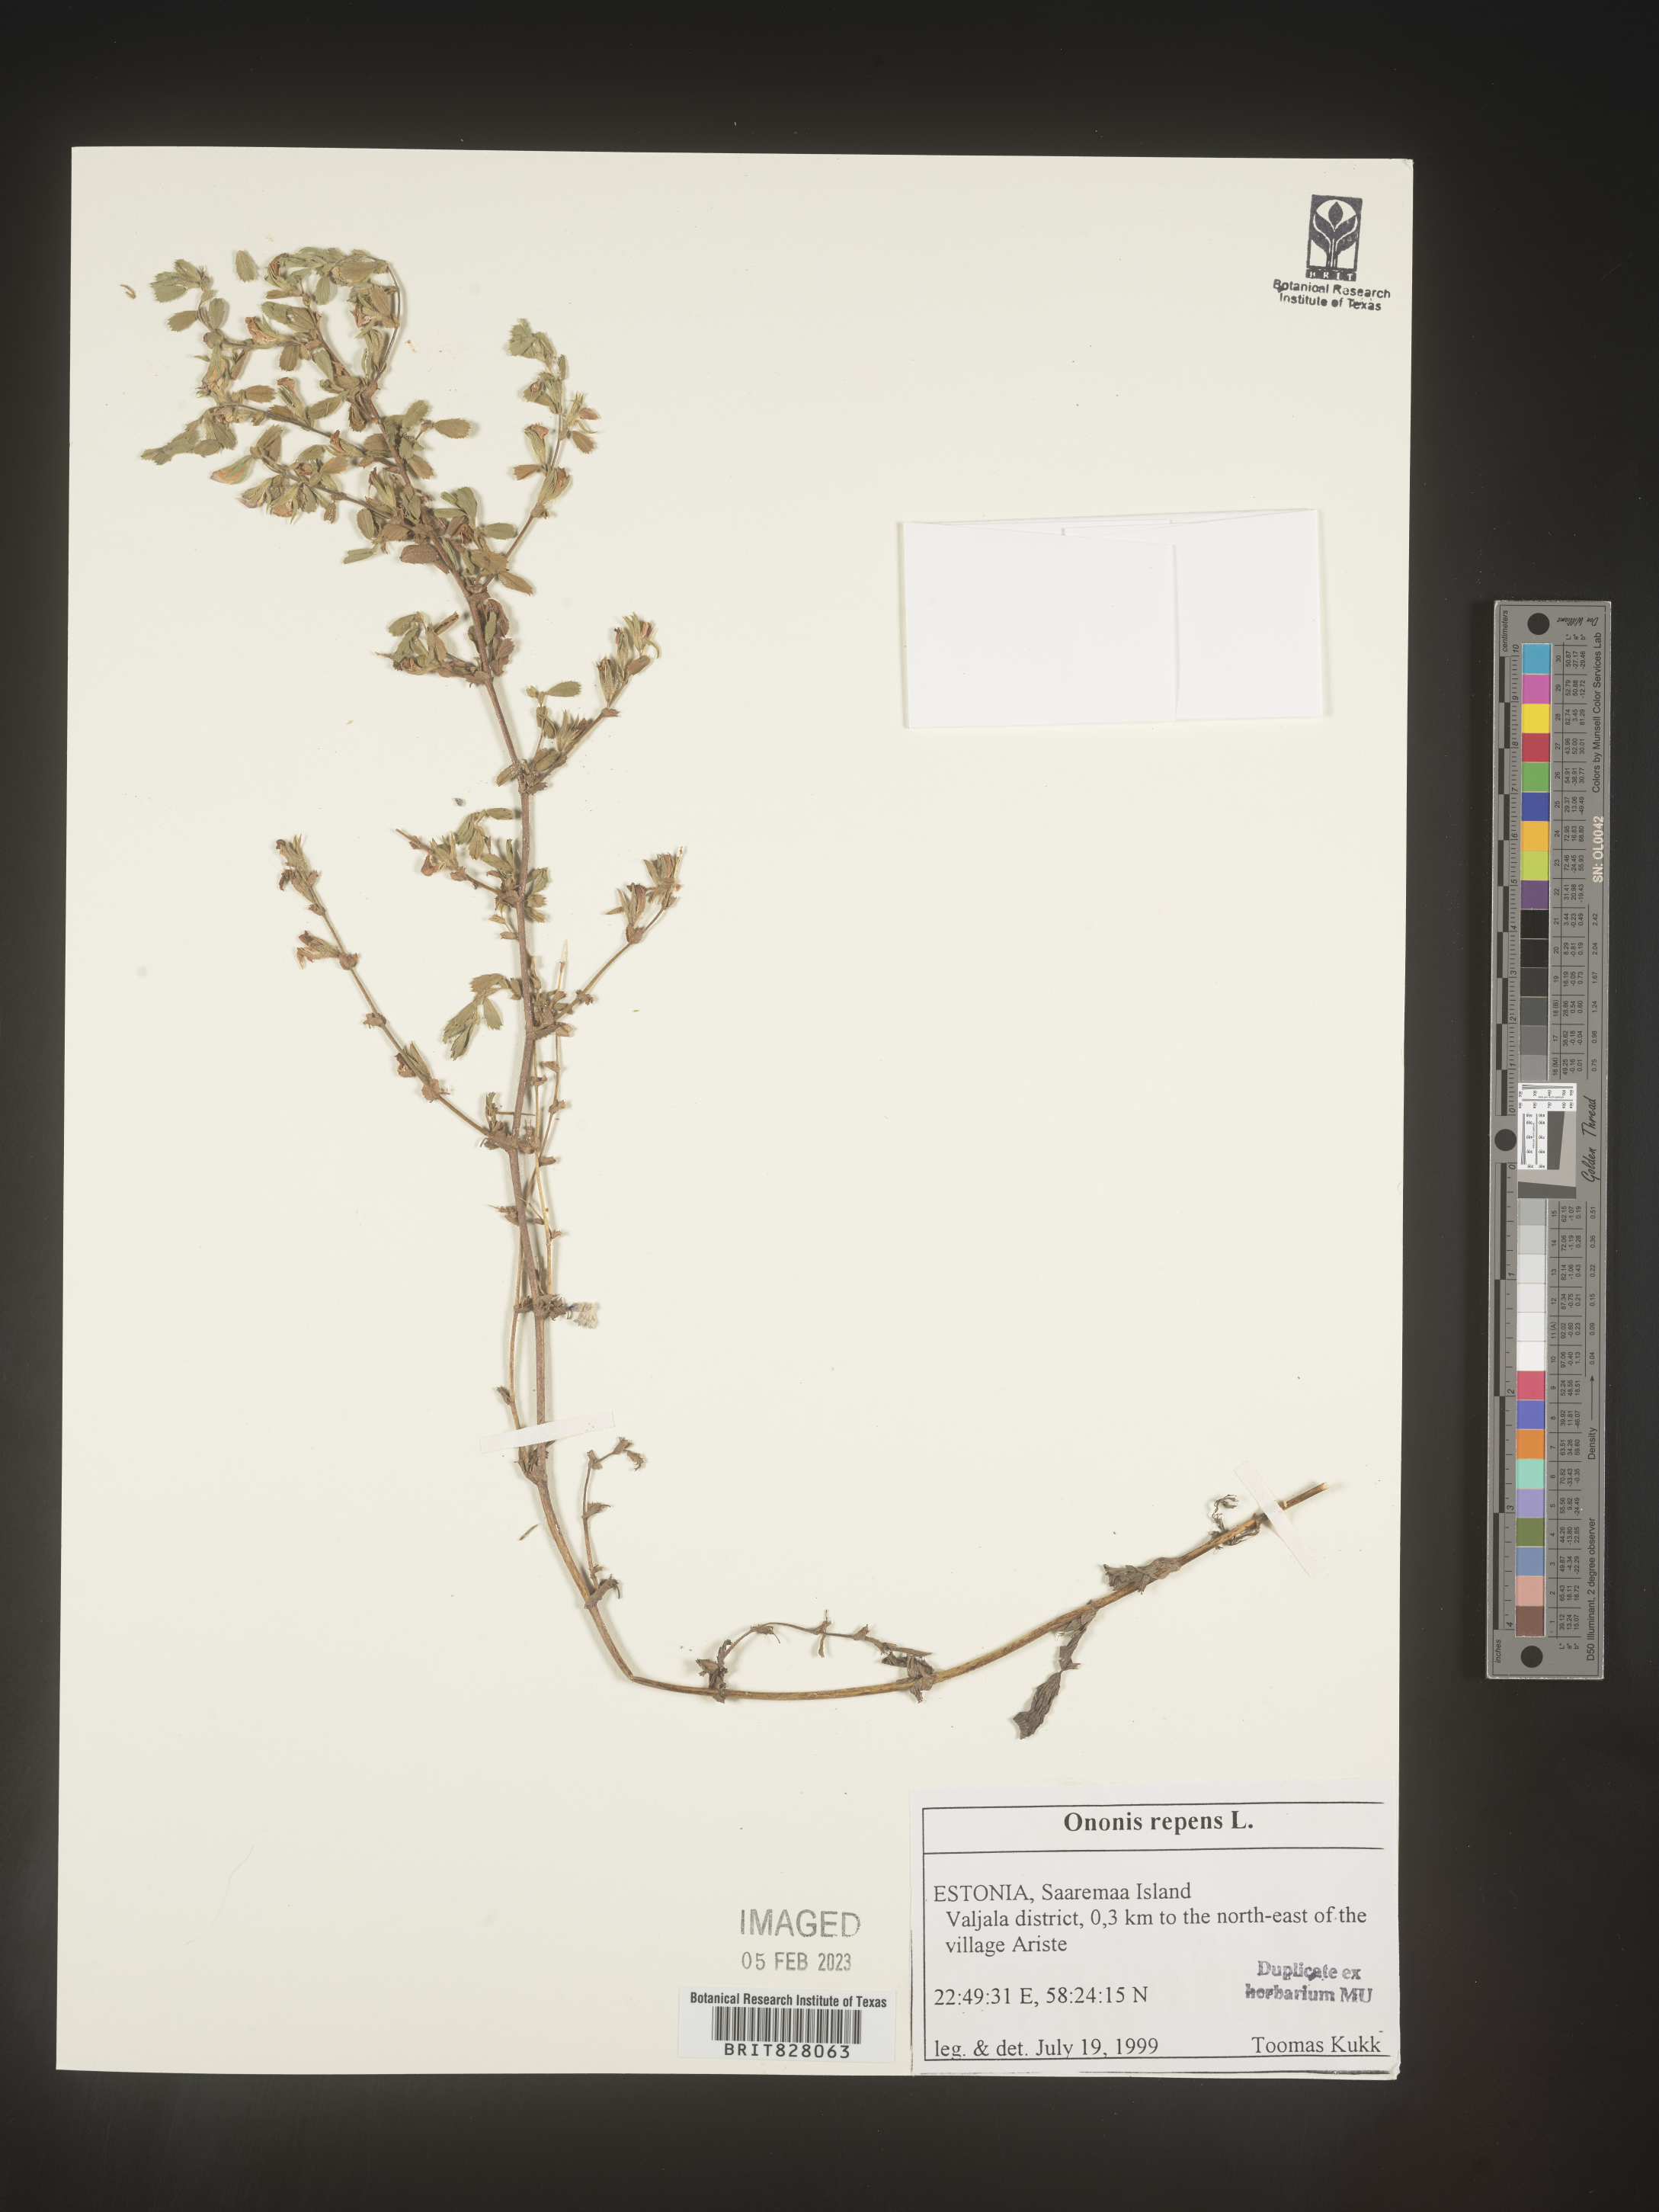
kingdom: Plantae
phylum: Tracheophyta
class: Magnoliopsida
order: Fabales
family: Fabaceae
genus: Ononis
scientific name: Ononis
